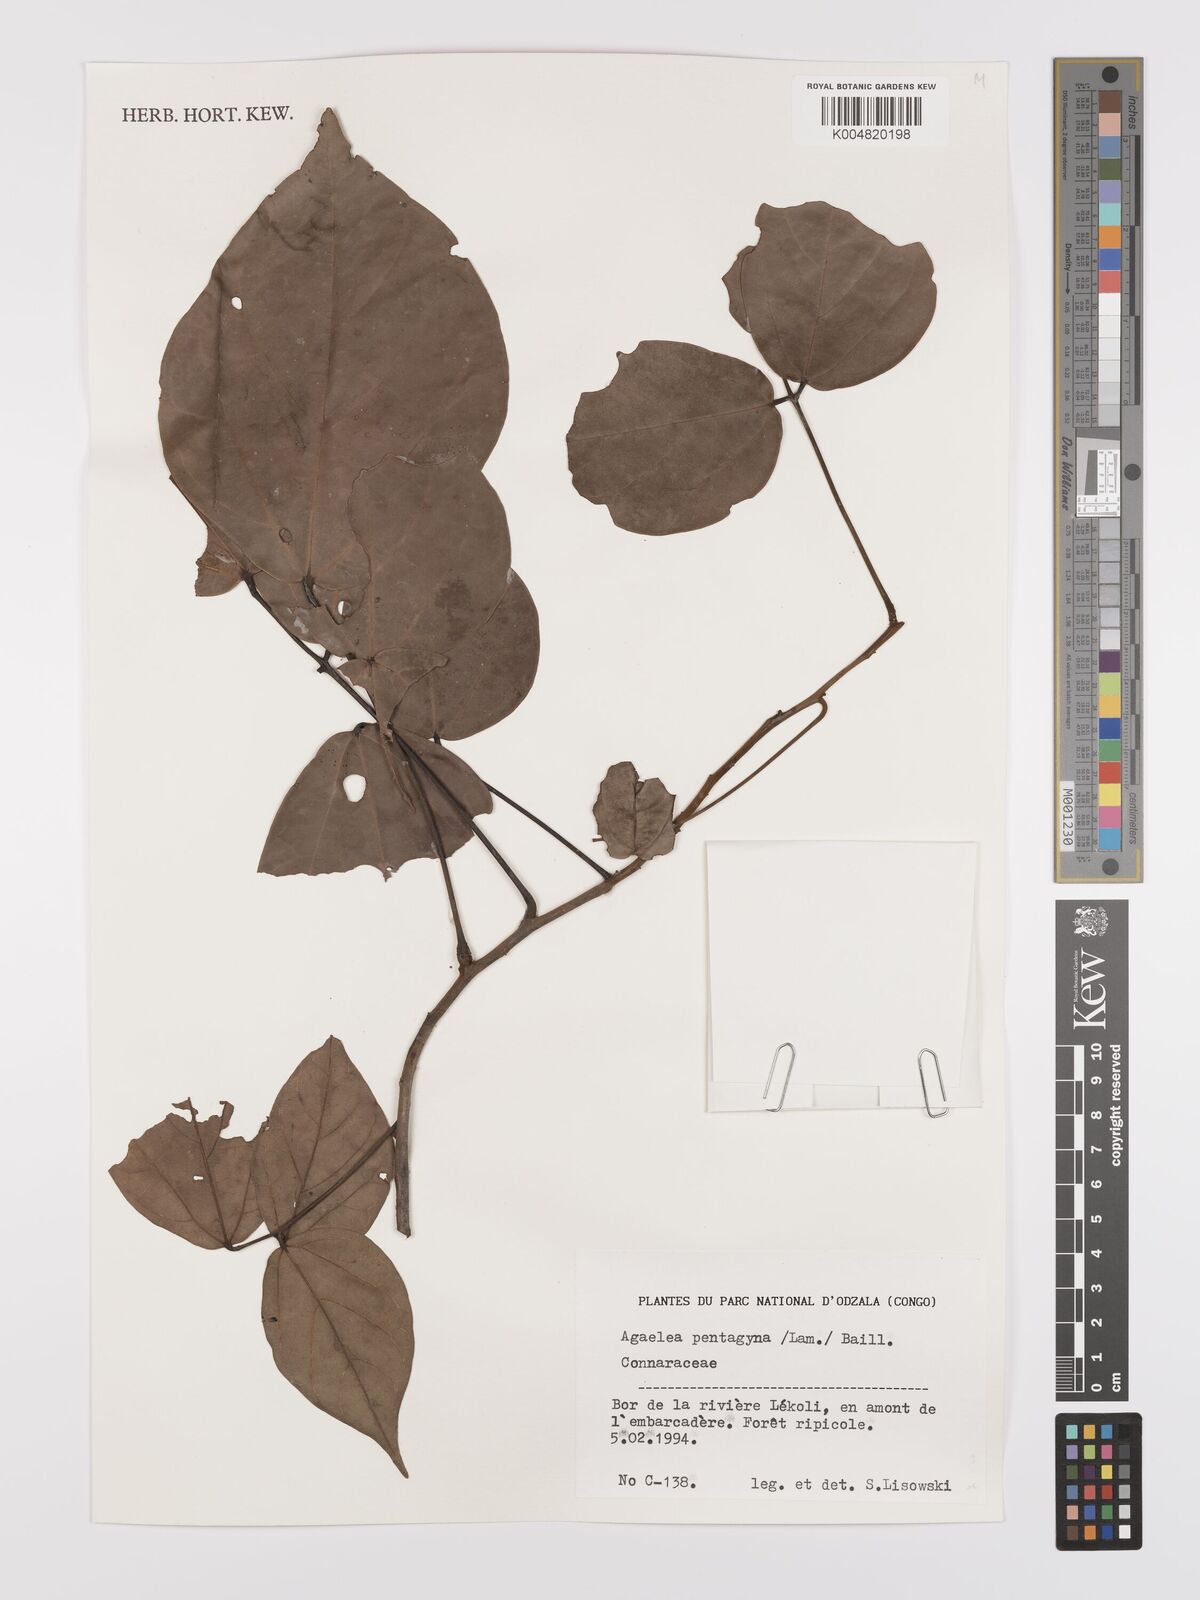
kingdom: Plantae
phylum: Tracheophyta
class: Magnoliopsida
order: Oxalidales
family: Connaraceae
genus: Agelaea
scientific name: Agelaea pentagyna
